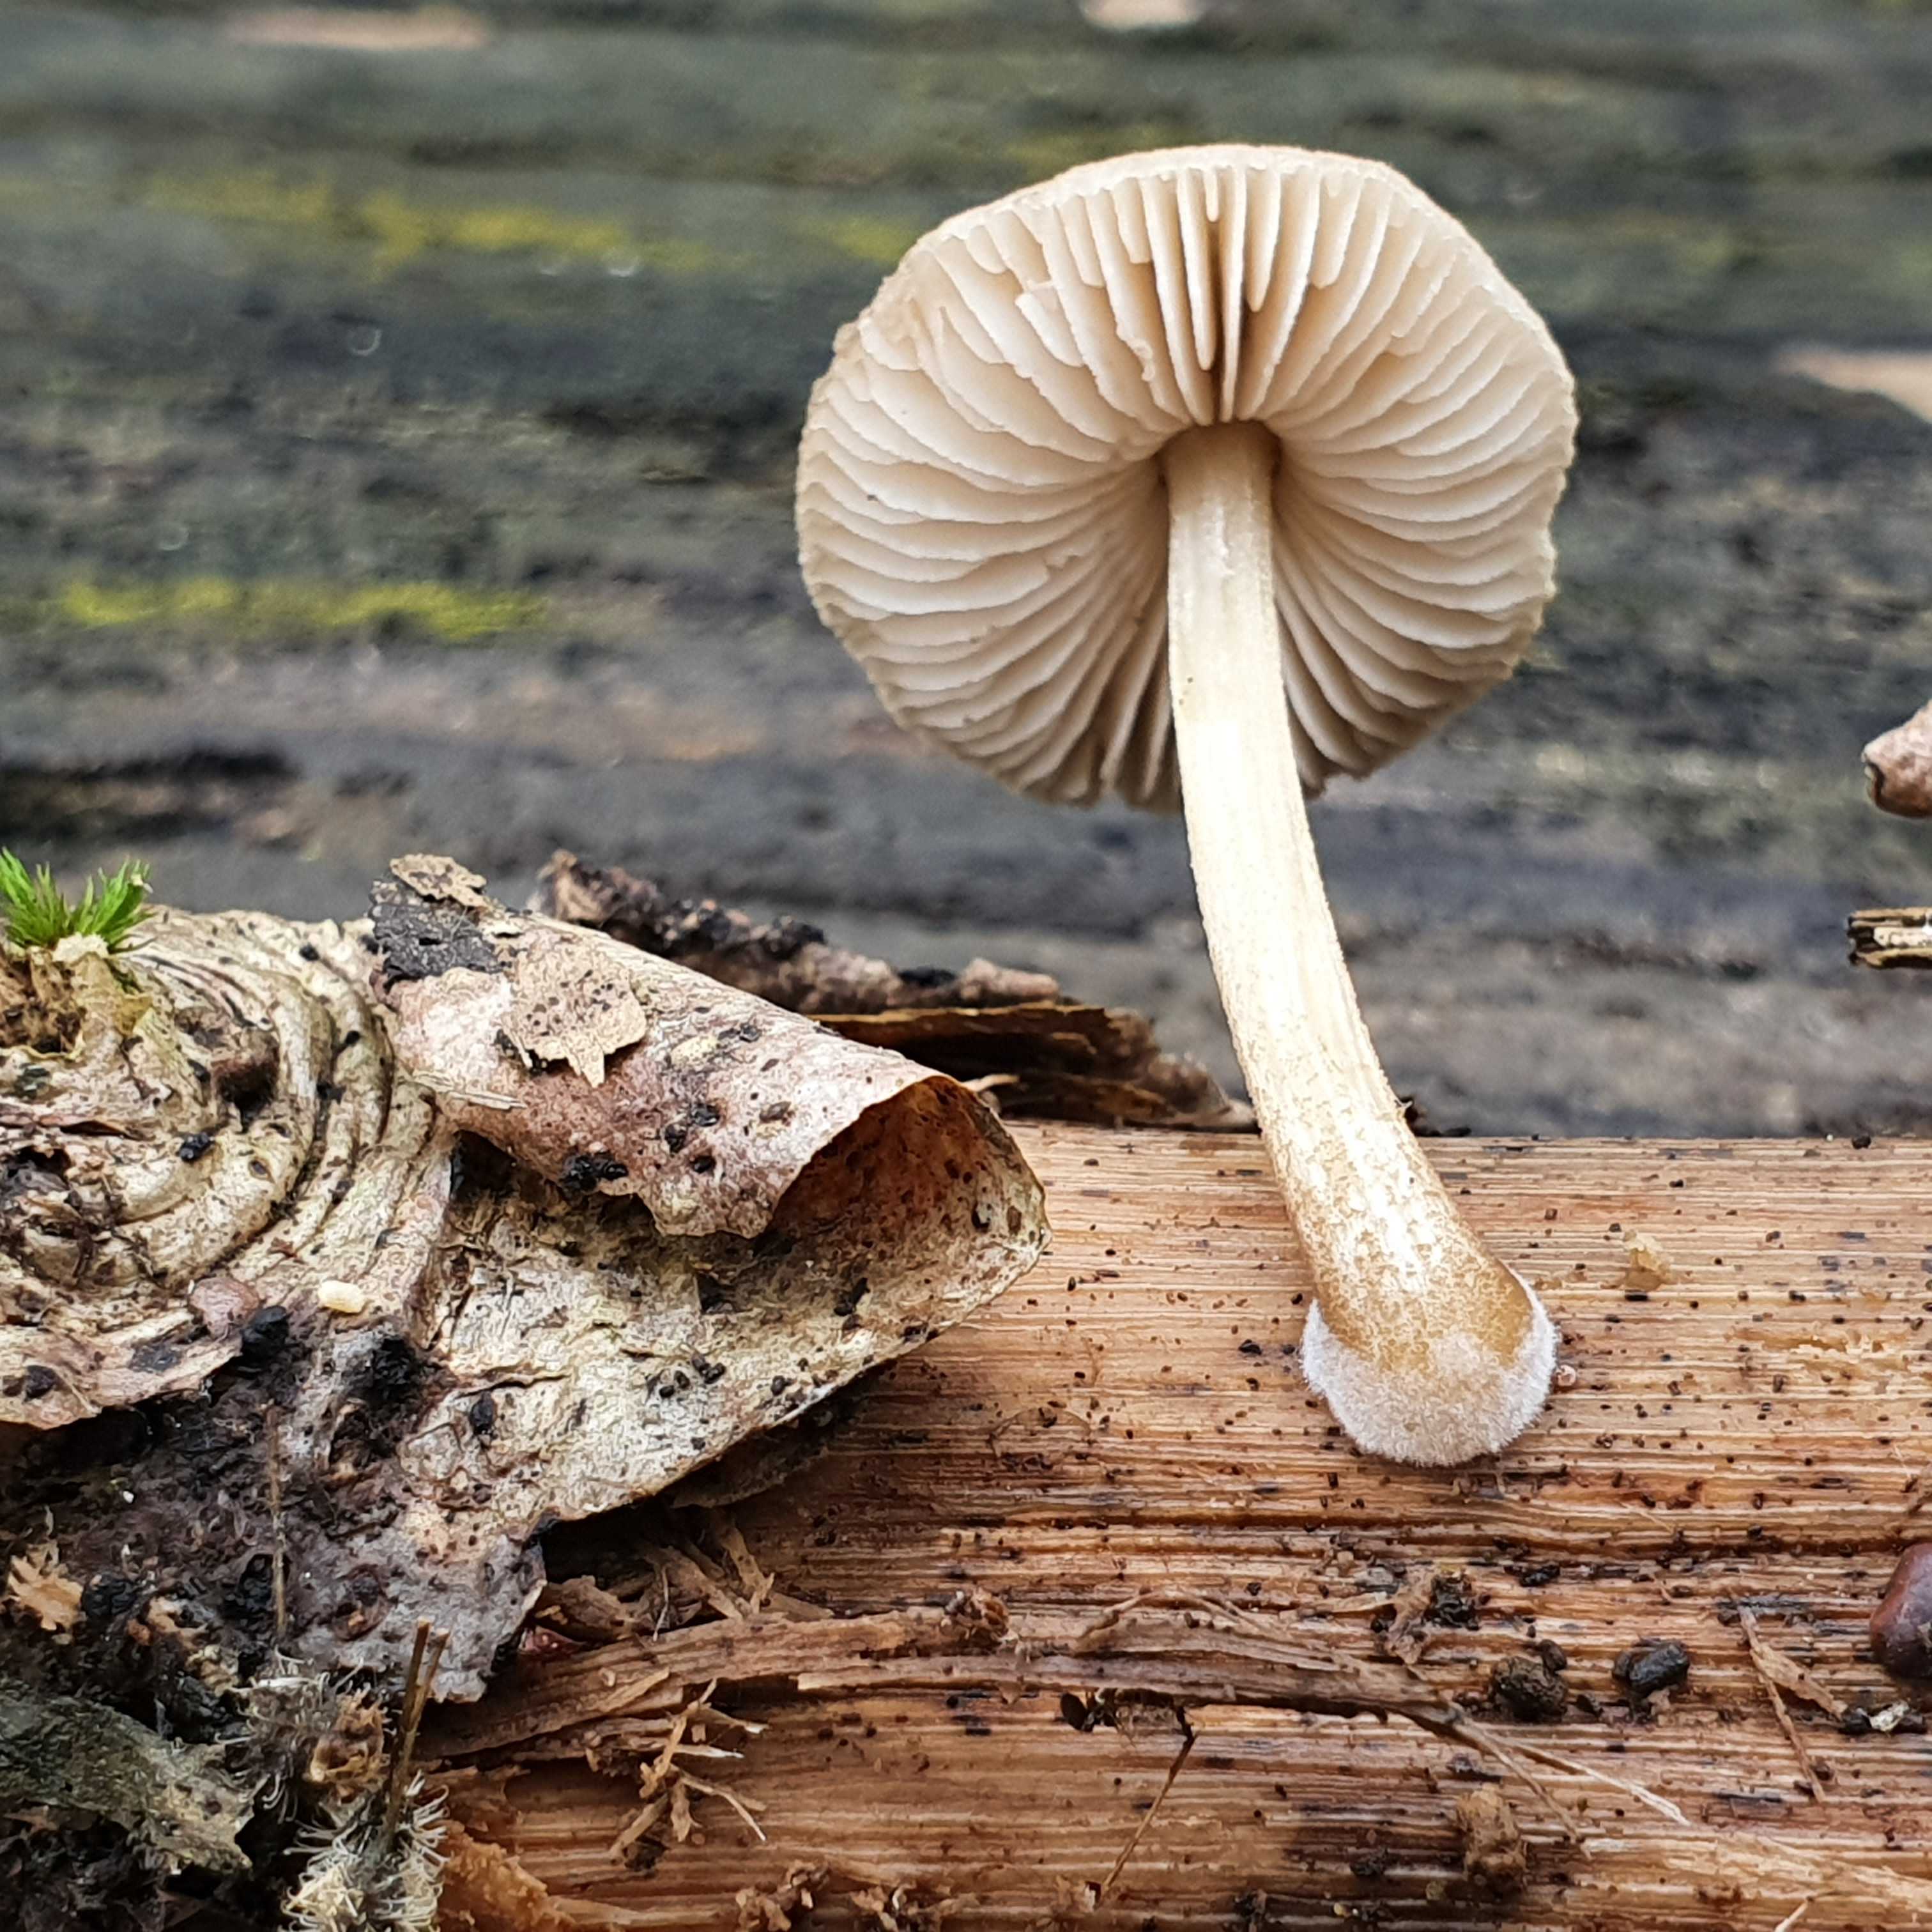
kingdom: Fungi
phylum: Basidiomycota
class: Agaricomycetes
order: Agaricales
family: Pluteaceae
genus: Pluteus
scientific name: Pluteus
